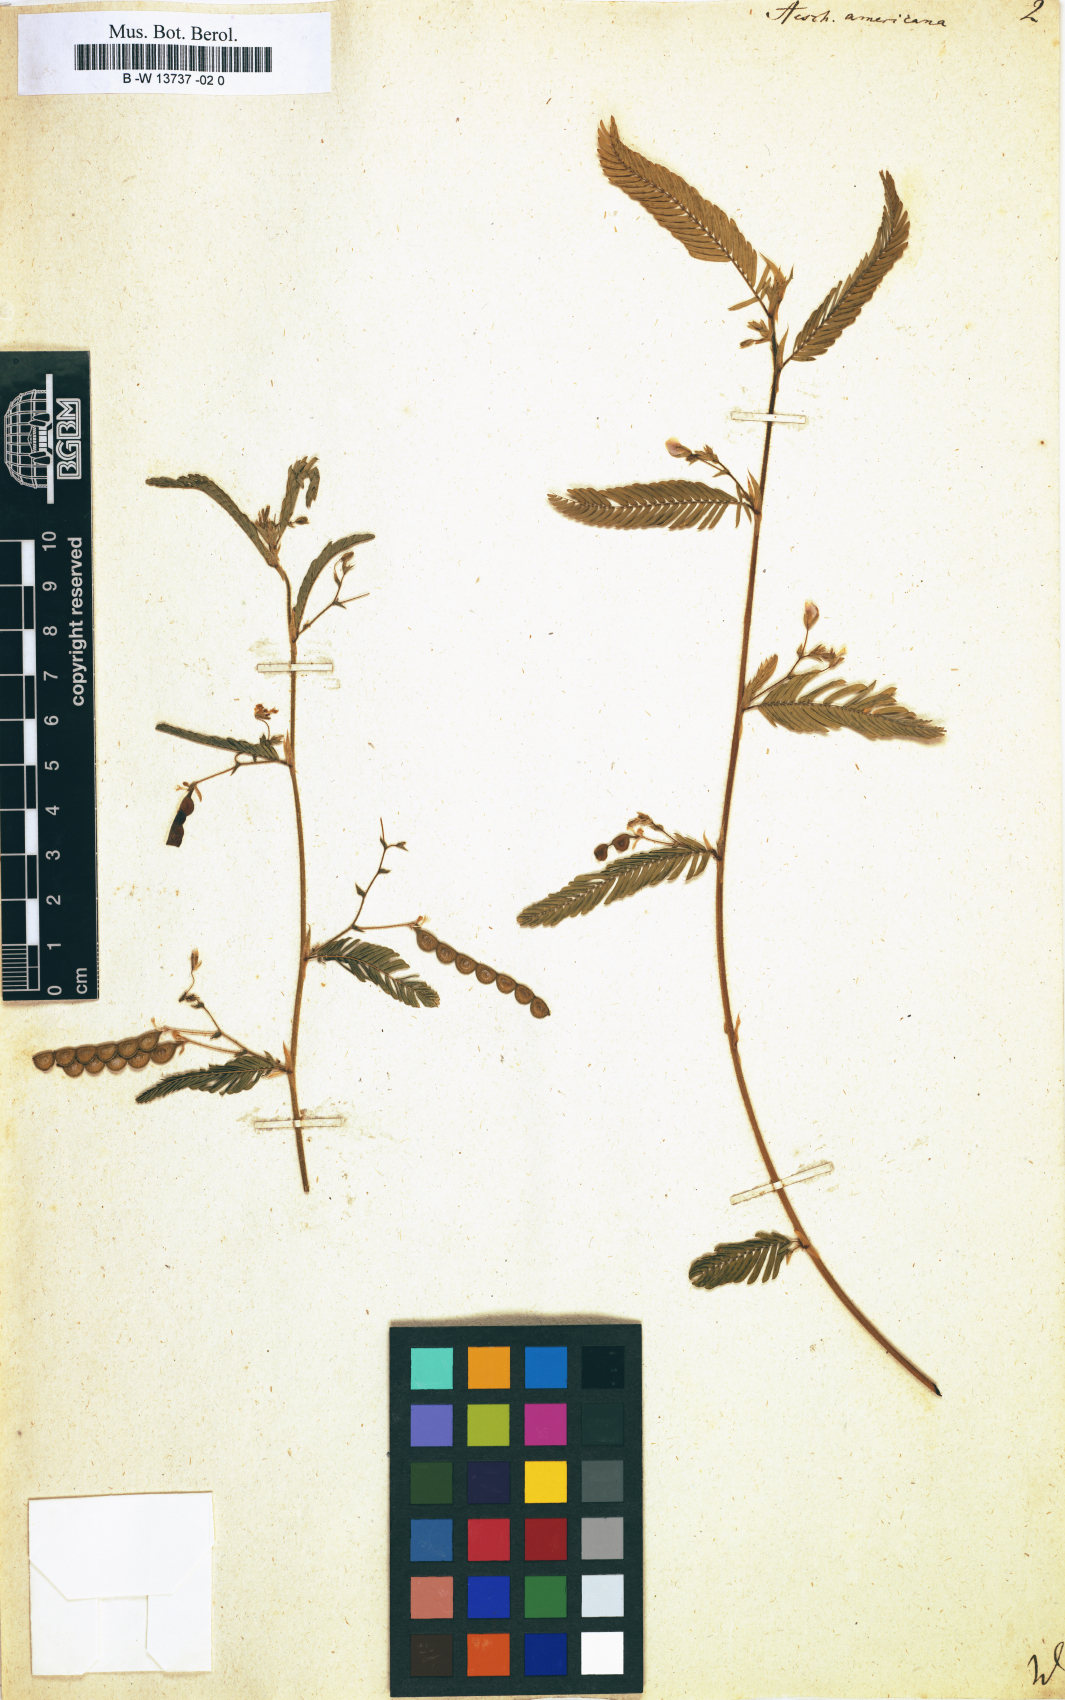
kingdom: Plantae
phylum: Tracheophyta
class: Magnoliopsida
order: Fabales
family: Fabaceae
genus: Aeschynomene
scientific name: Aeschynomene americana
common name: Joint-vetch
